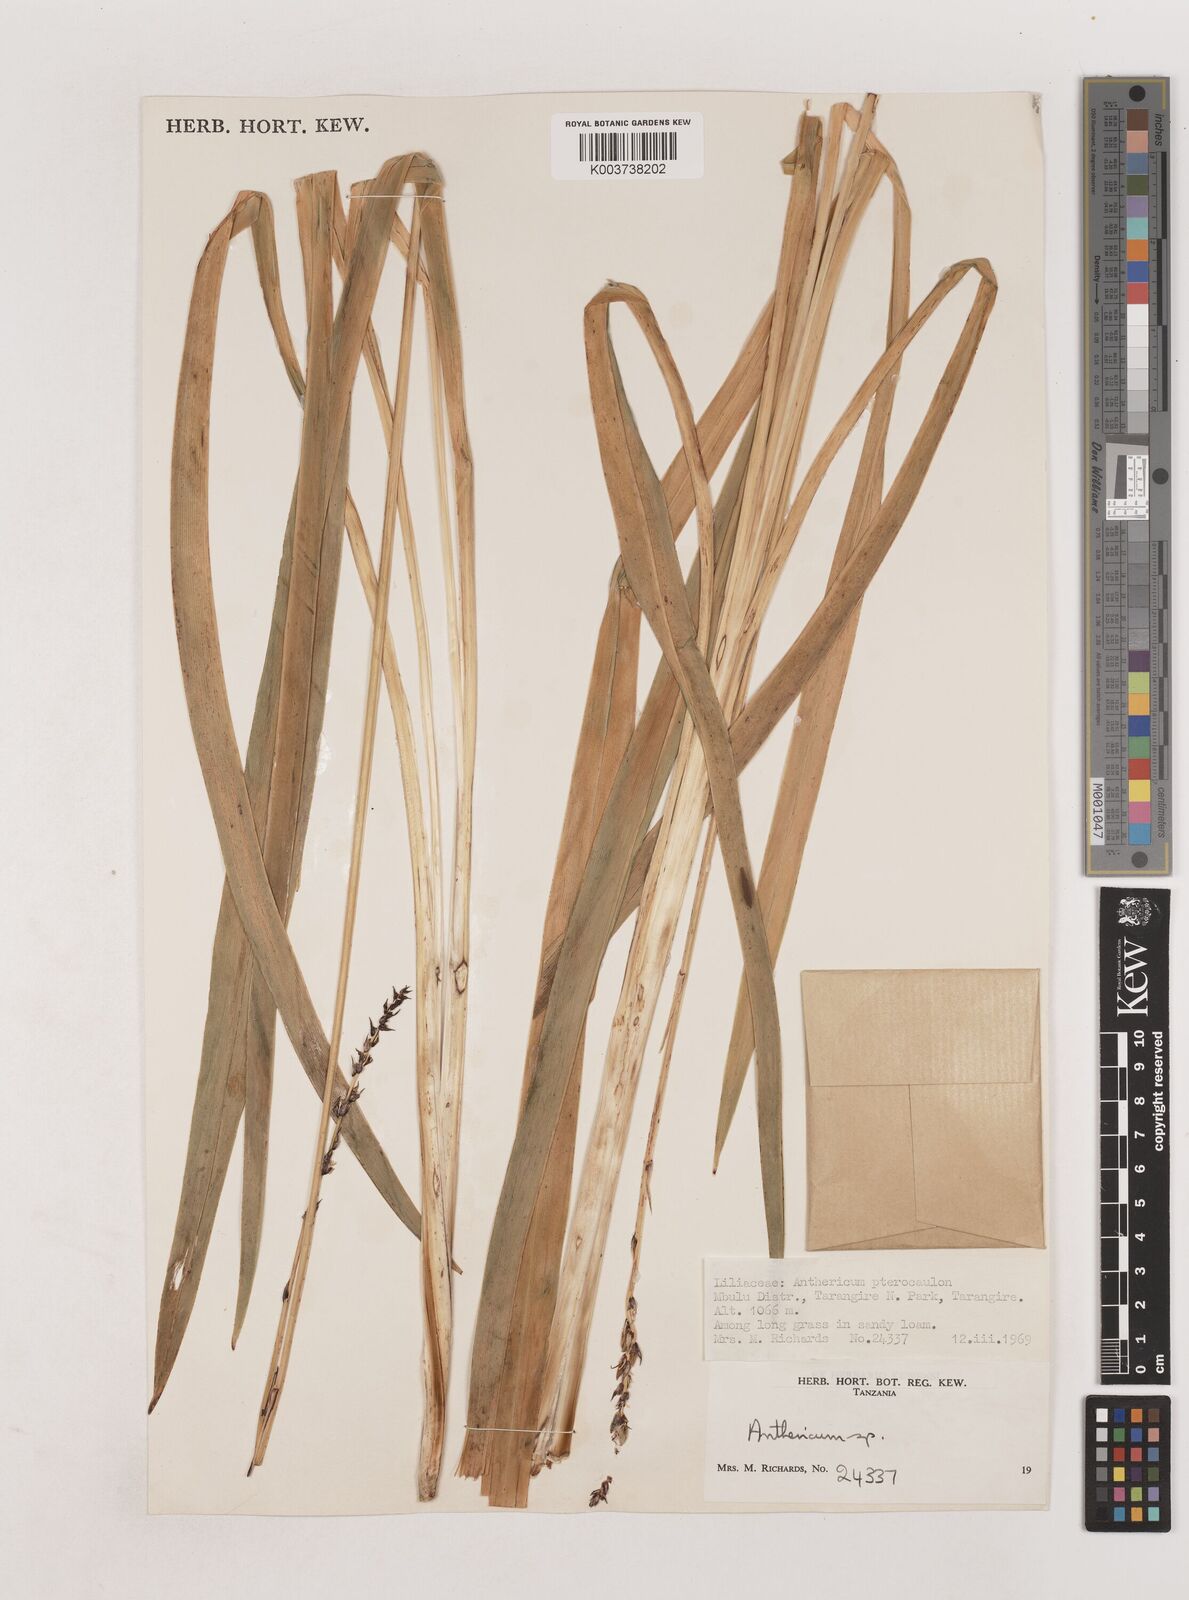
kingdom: Plantae
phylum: Tracheophyta
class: Liliopsida
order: Asparagales
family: Asparagaceae
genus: Chlorophytum
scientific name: Chlorophytum cameronii
